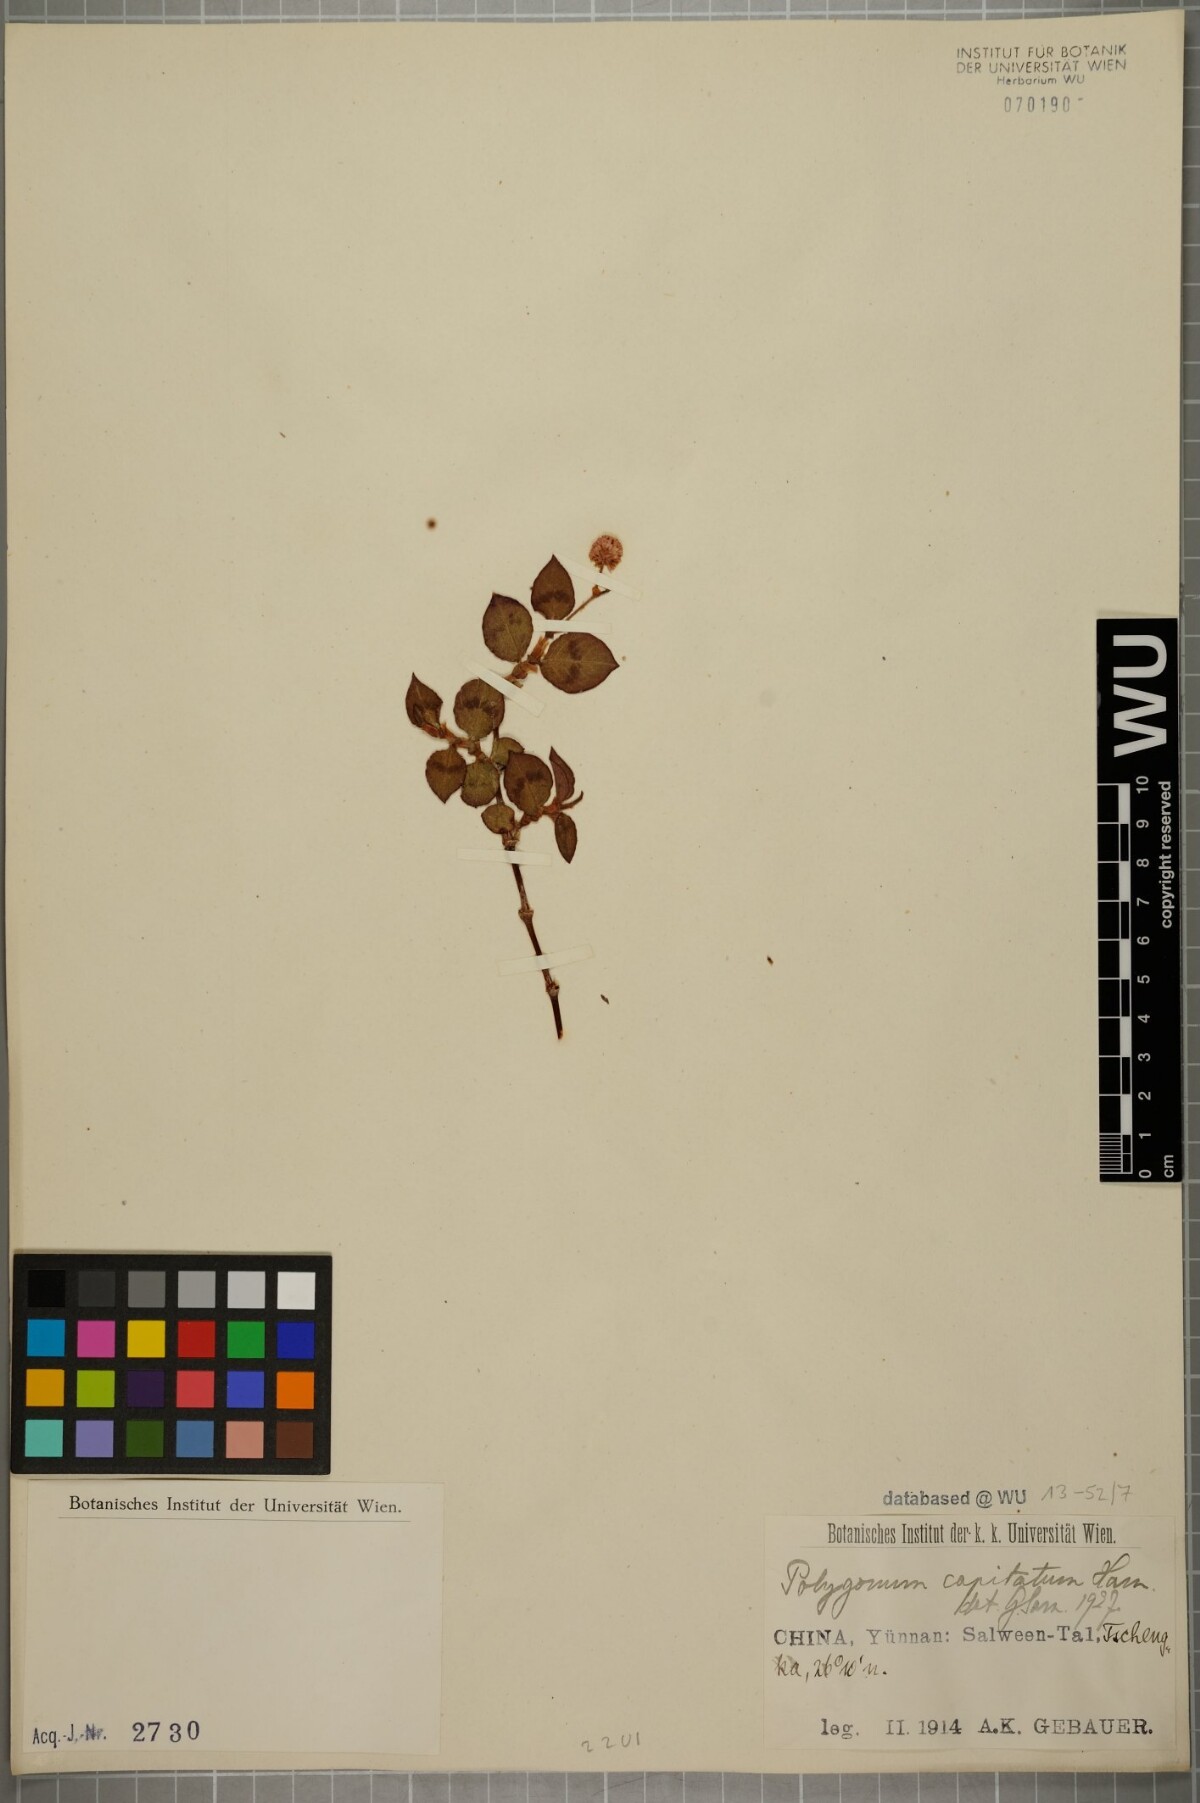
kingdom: Plantae
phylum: Tracheophyta
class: Magnoliopsida
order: Caryophyllales
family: Polygonaceae
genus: Persicaria
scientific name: Persicaria capitata
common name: Pinkhead smartweed
